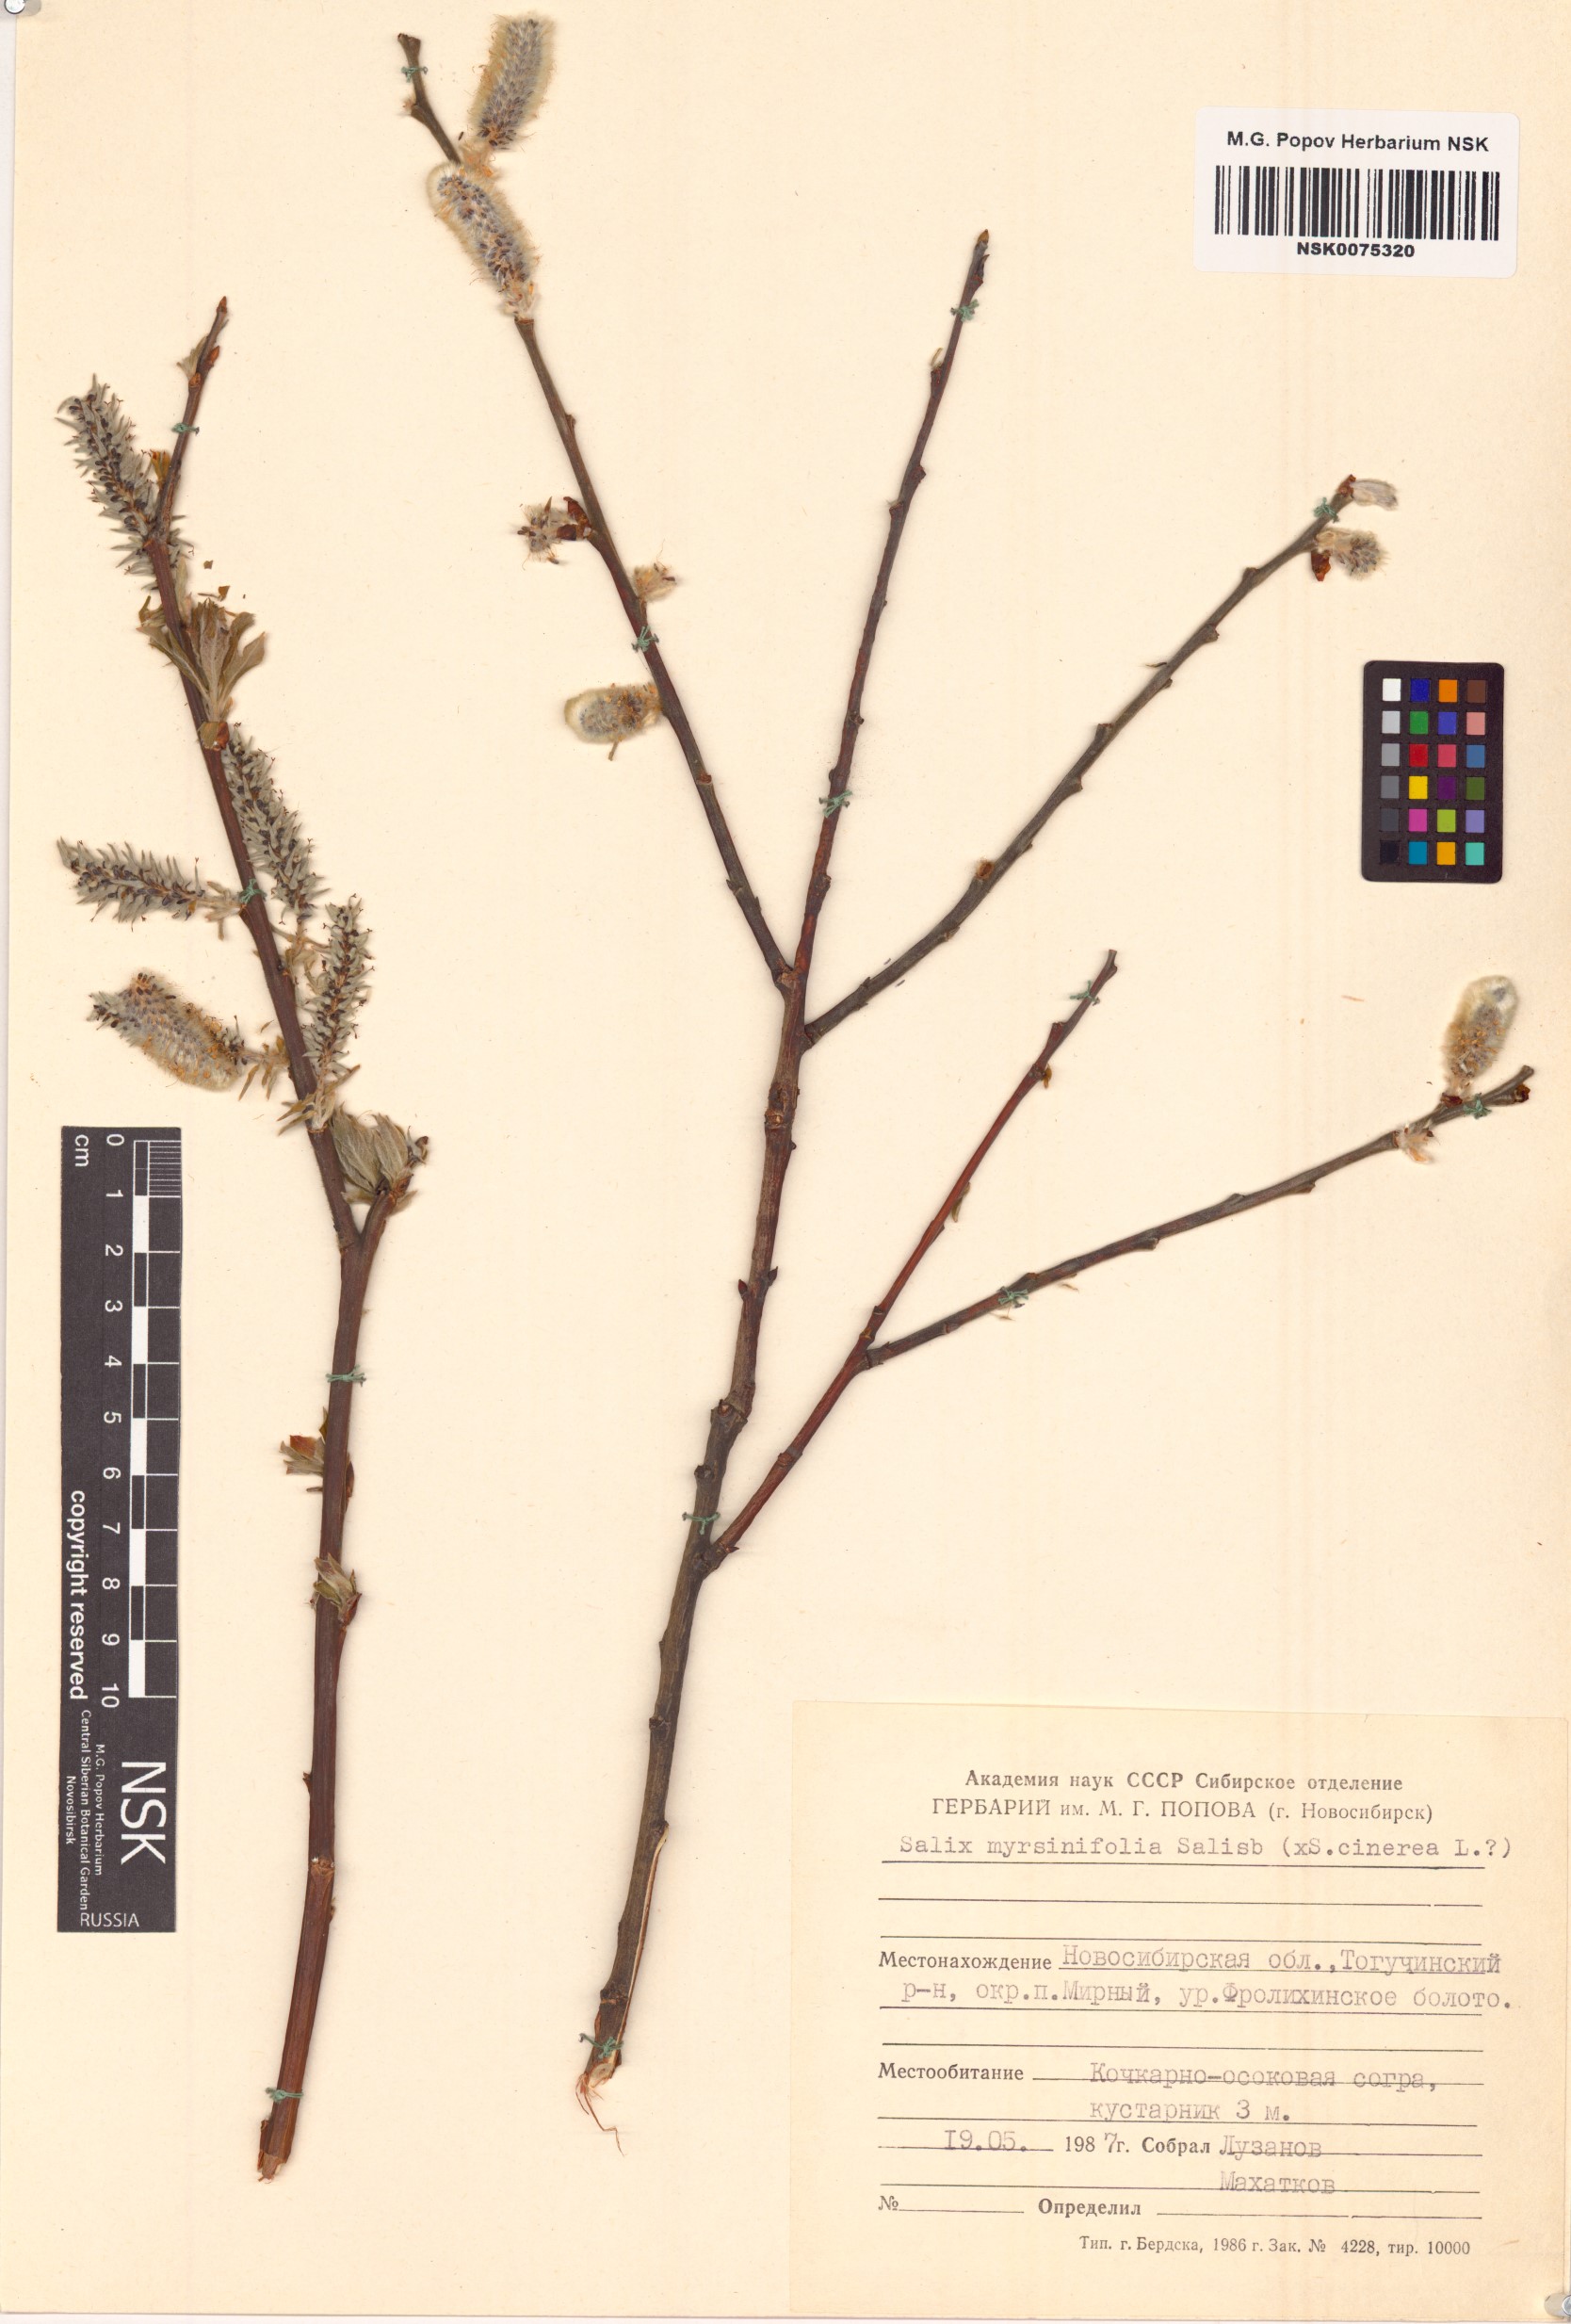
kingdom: Plantae
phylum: Tracheophyta
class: Magnoliopsida
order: Malpighiales
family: Salicaceae
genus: Salix
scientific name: Salix myrsinifolia
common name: Dark-leaved willow
